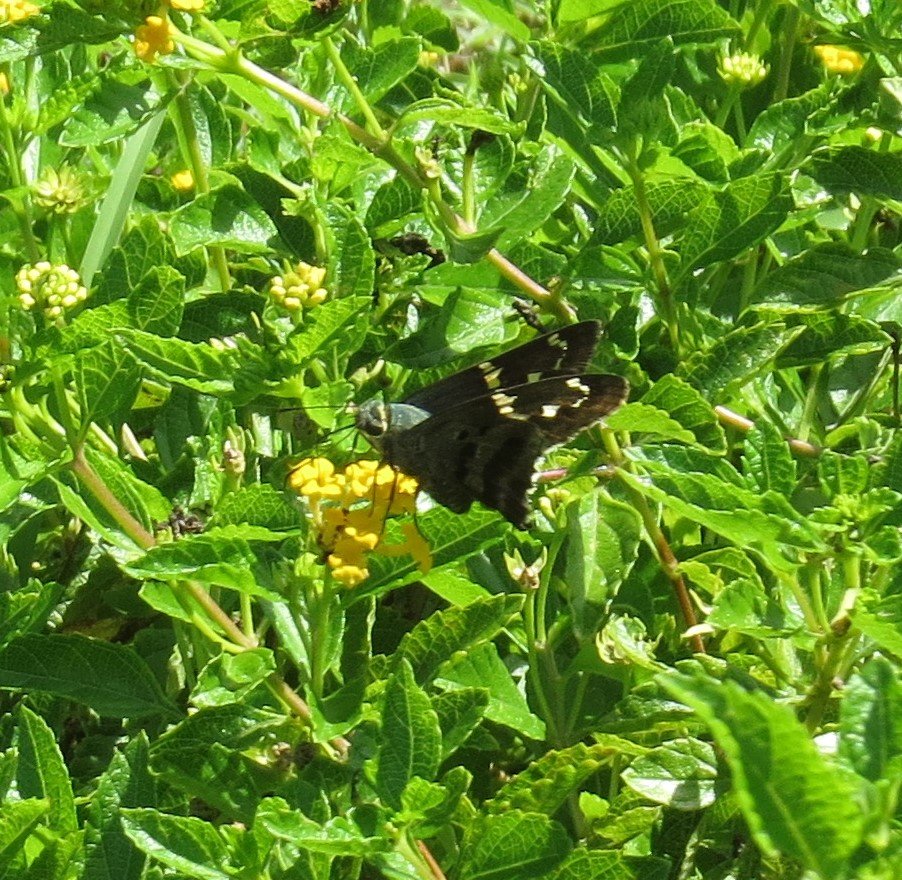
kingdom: Animalia
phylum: Arthropoda
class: Insecta
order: Lepidoptera
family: Hesperiidae
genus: Urbanus
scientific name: Urbanus proteus
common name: Long-tailed Skipper
